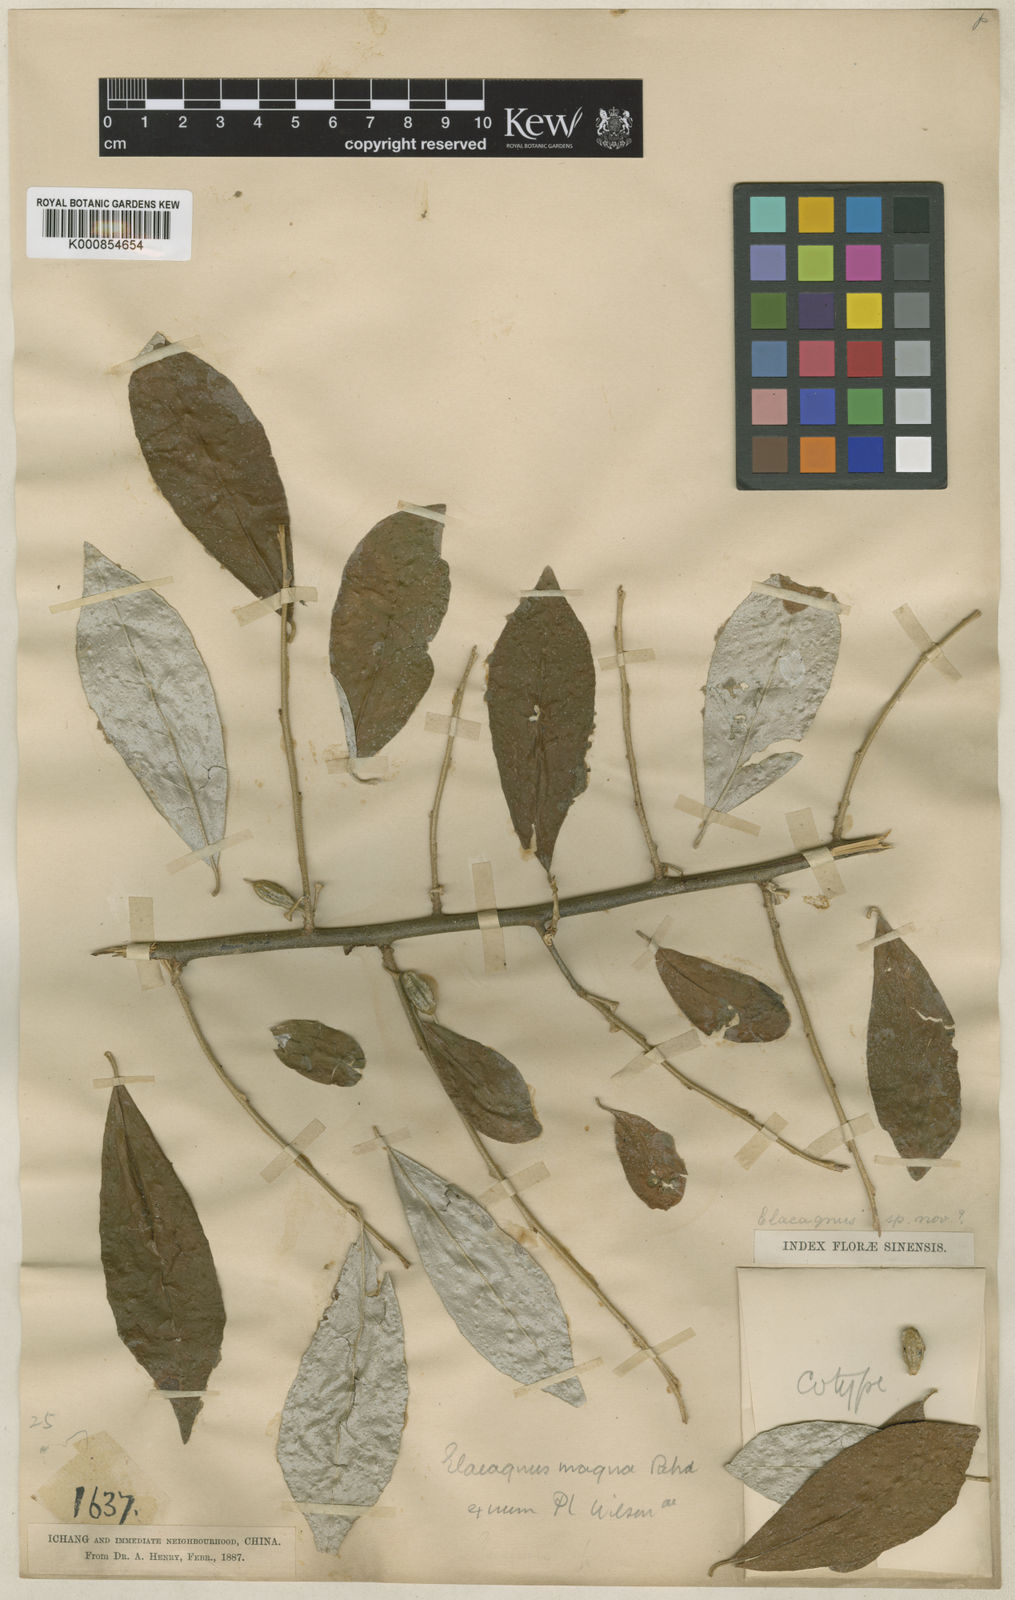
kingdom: Plantae
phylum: Tracheophyta
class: Magnoliopsida
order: Rosales
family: Elaeagnaceae
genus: Elaeagnus
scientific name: Elaeagnus magna
